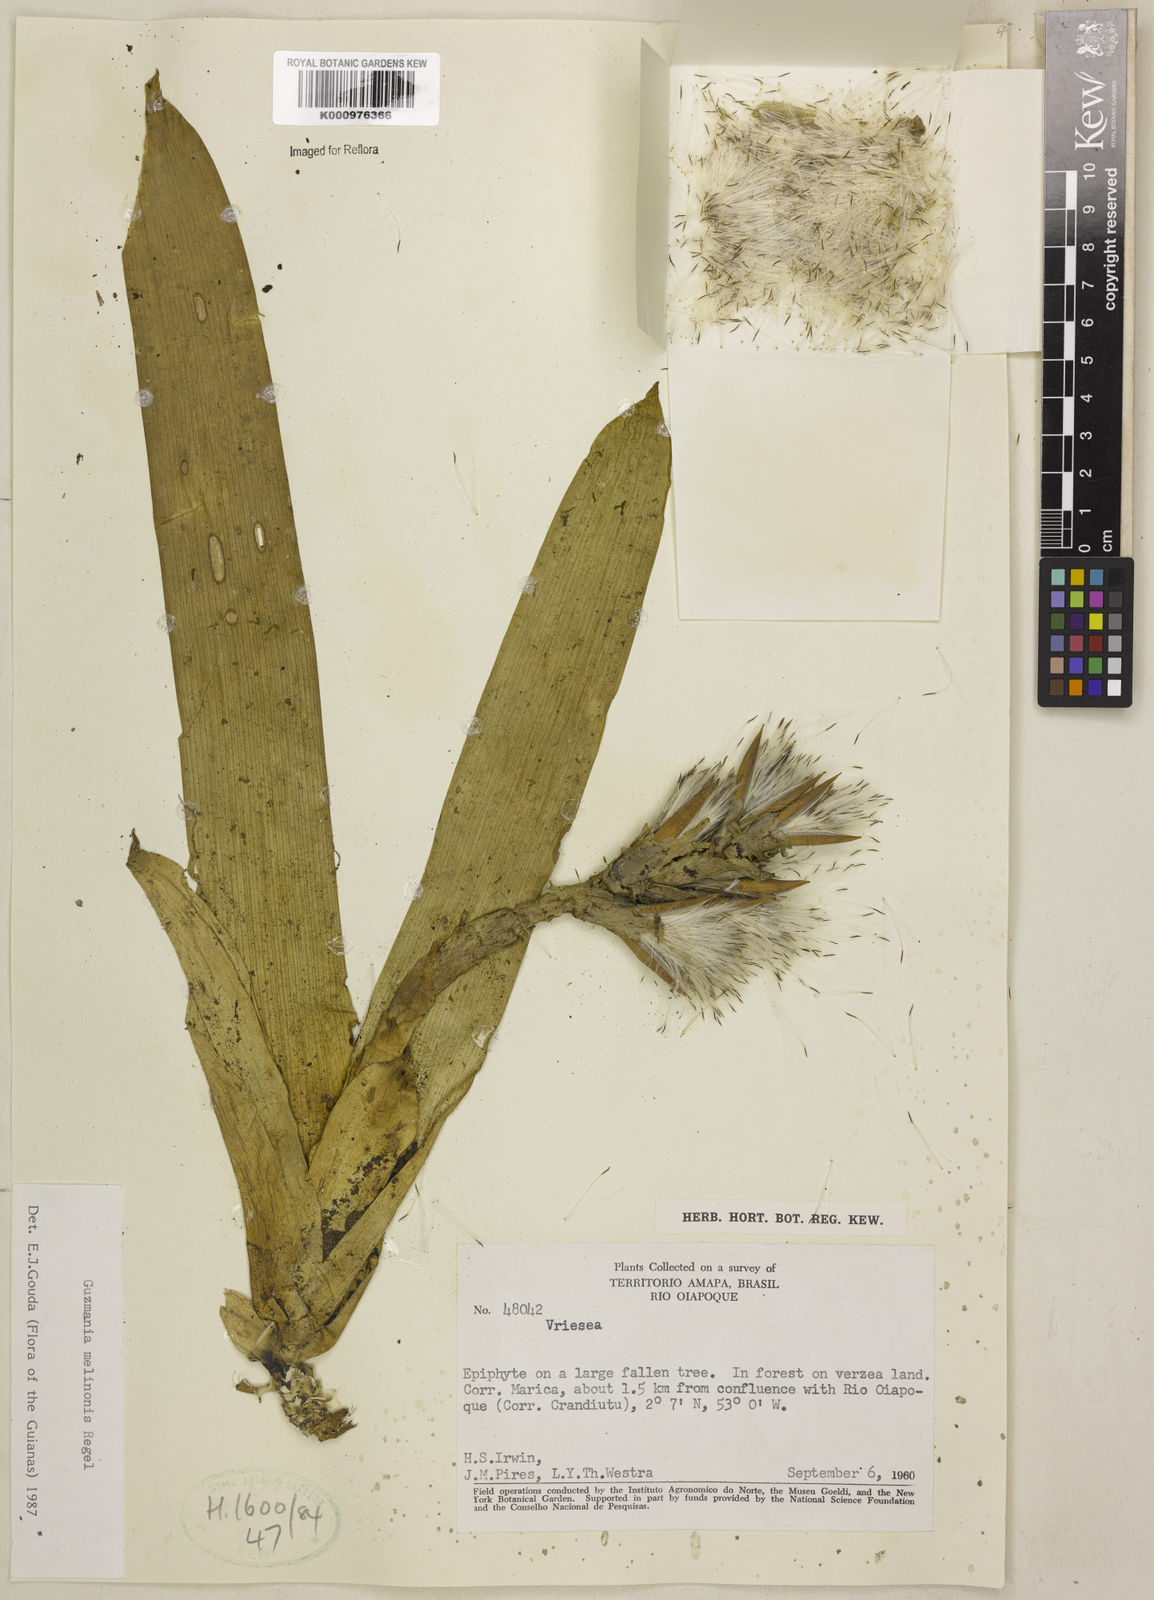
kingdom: Plantae
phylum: Tracheophyta
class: Liliopsida
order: Poales
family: Bromeliaceae
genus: Guzmania
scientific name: Guzmania melinonis
